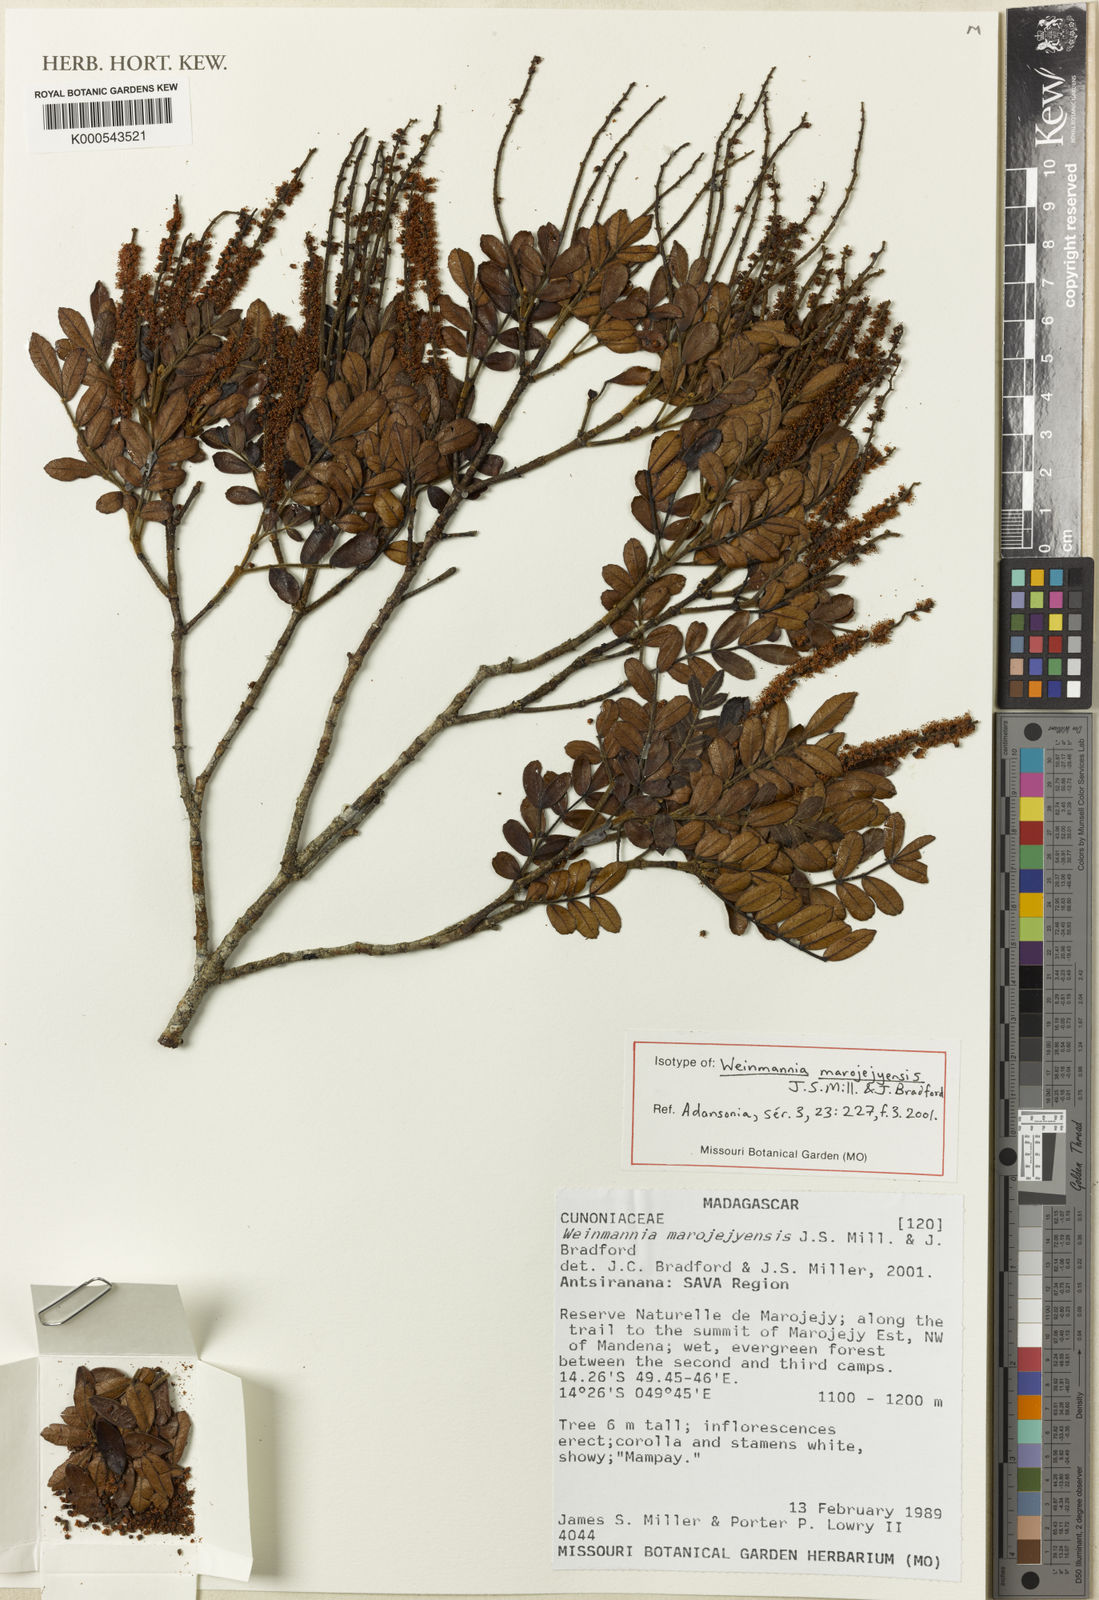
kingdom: Plantae
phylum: Tracheophyta
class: Magnoliopsida
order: Oxalidales
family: Cunoniaceae
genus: Pterophylla
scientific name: Pterophylla marojejyensis
